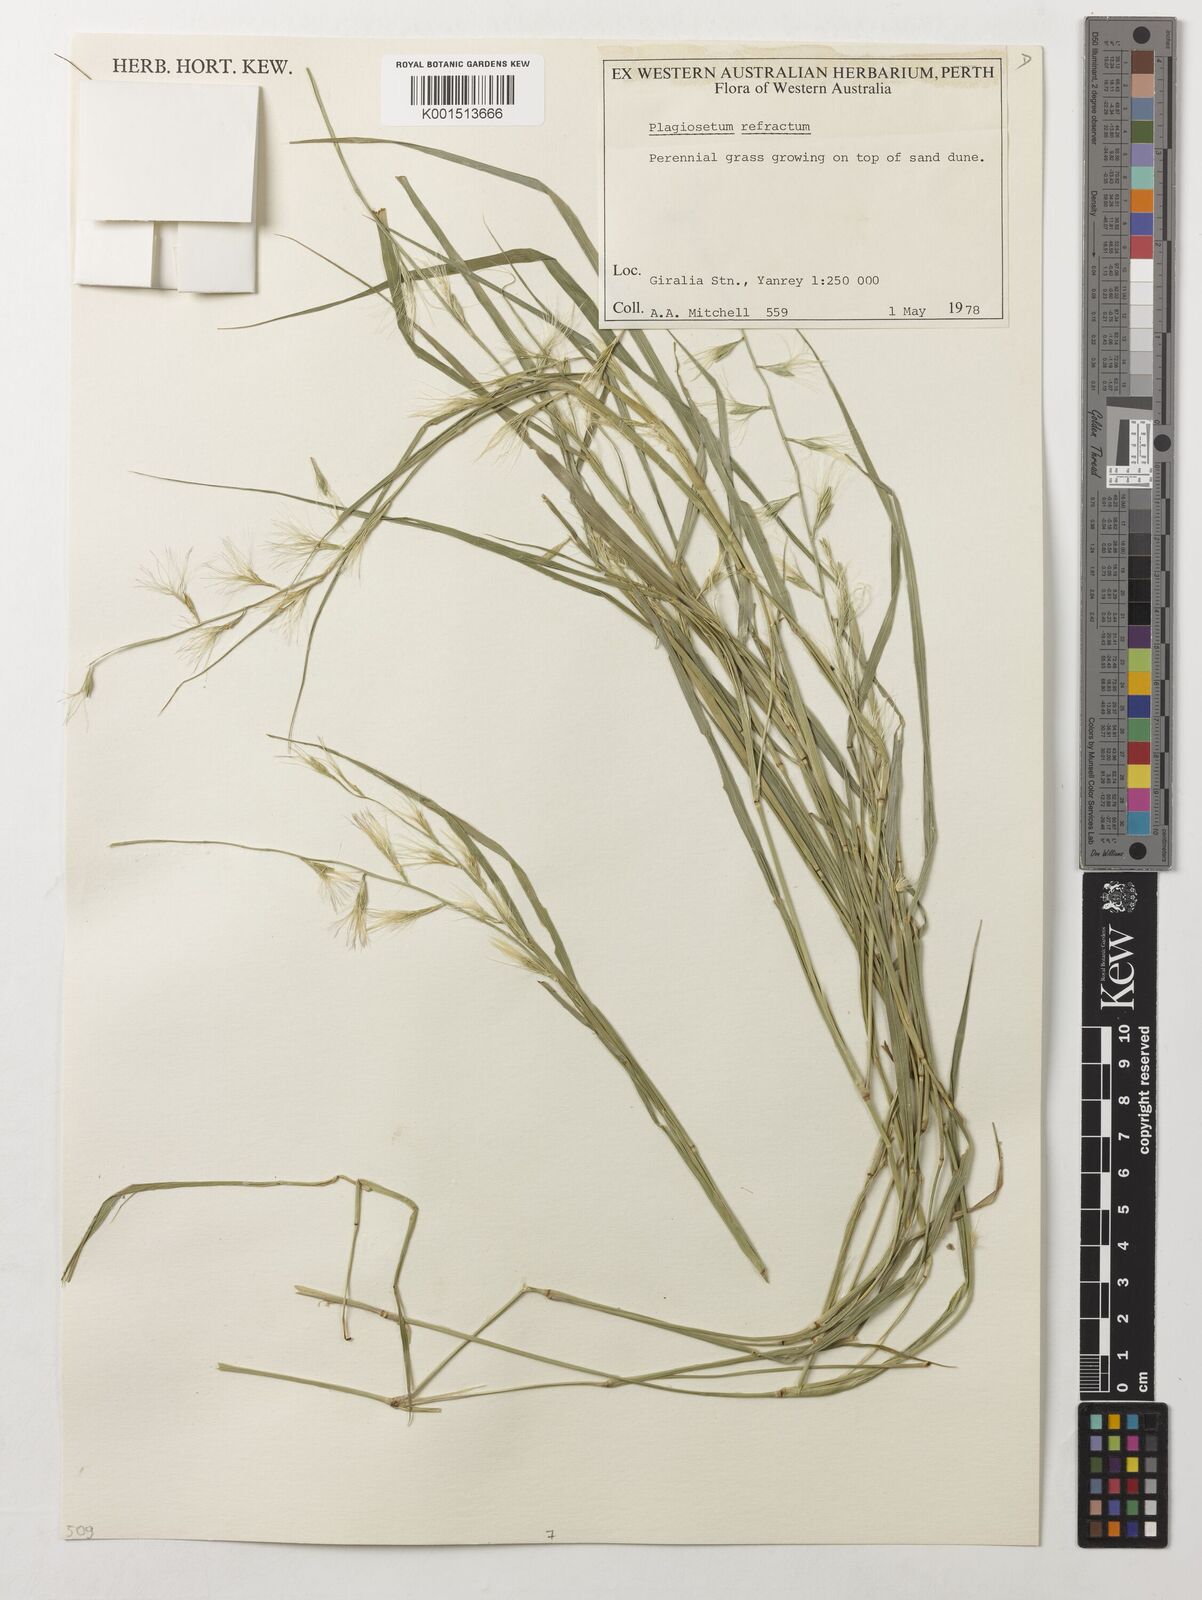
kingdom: Plantae
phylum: Tracheophyta
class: Liliopsida
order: Poales
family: Poaceae
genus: Plagiosetum
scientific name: Plagiosetum refractum
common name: Bristle-brush grass
